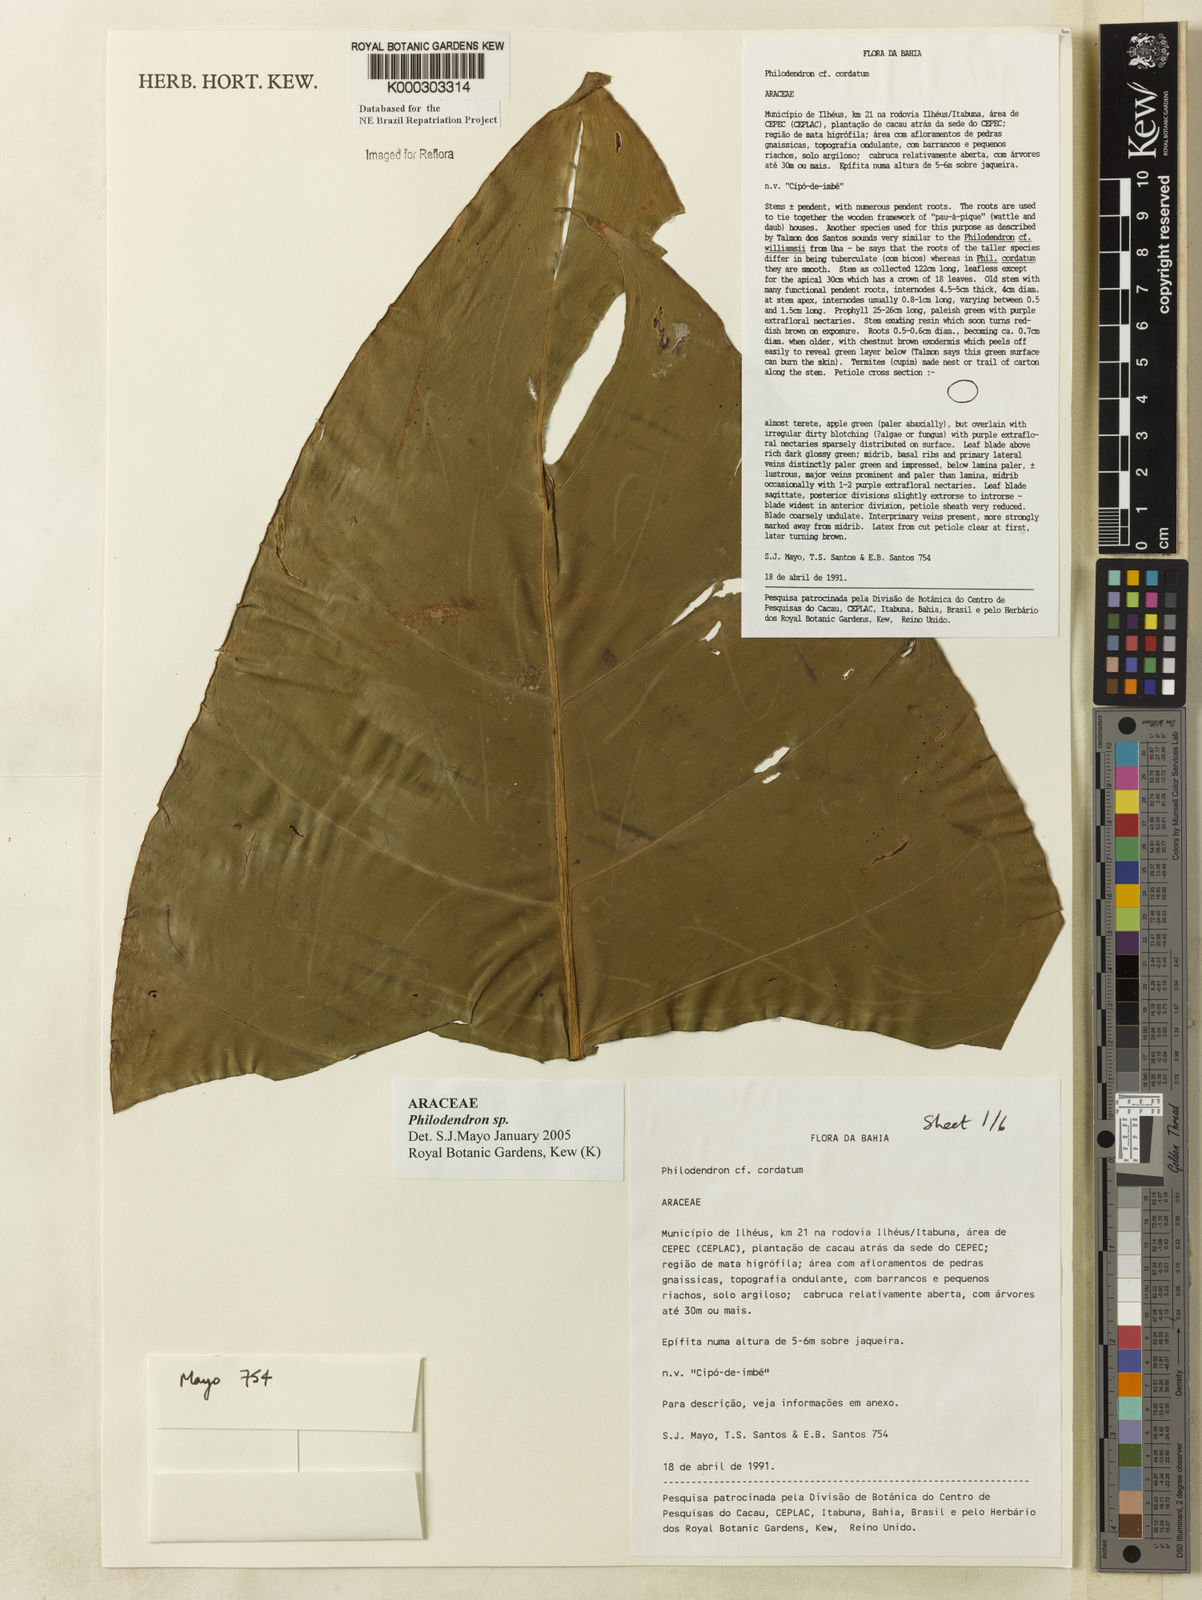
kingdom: Plantae
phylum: Tracheophyta
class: Liliopsida
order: Alismatales
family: Araceae
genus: Philodendron
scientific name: Philodendron
